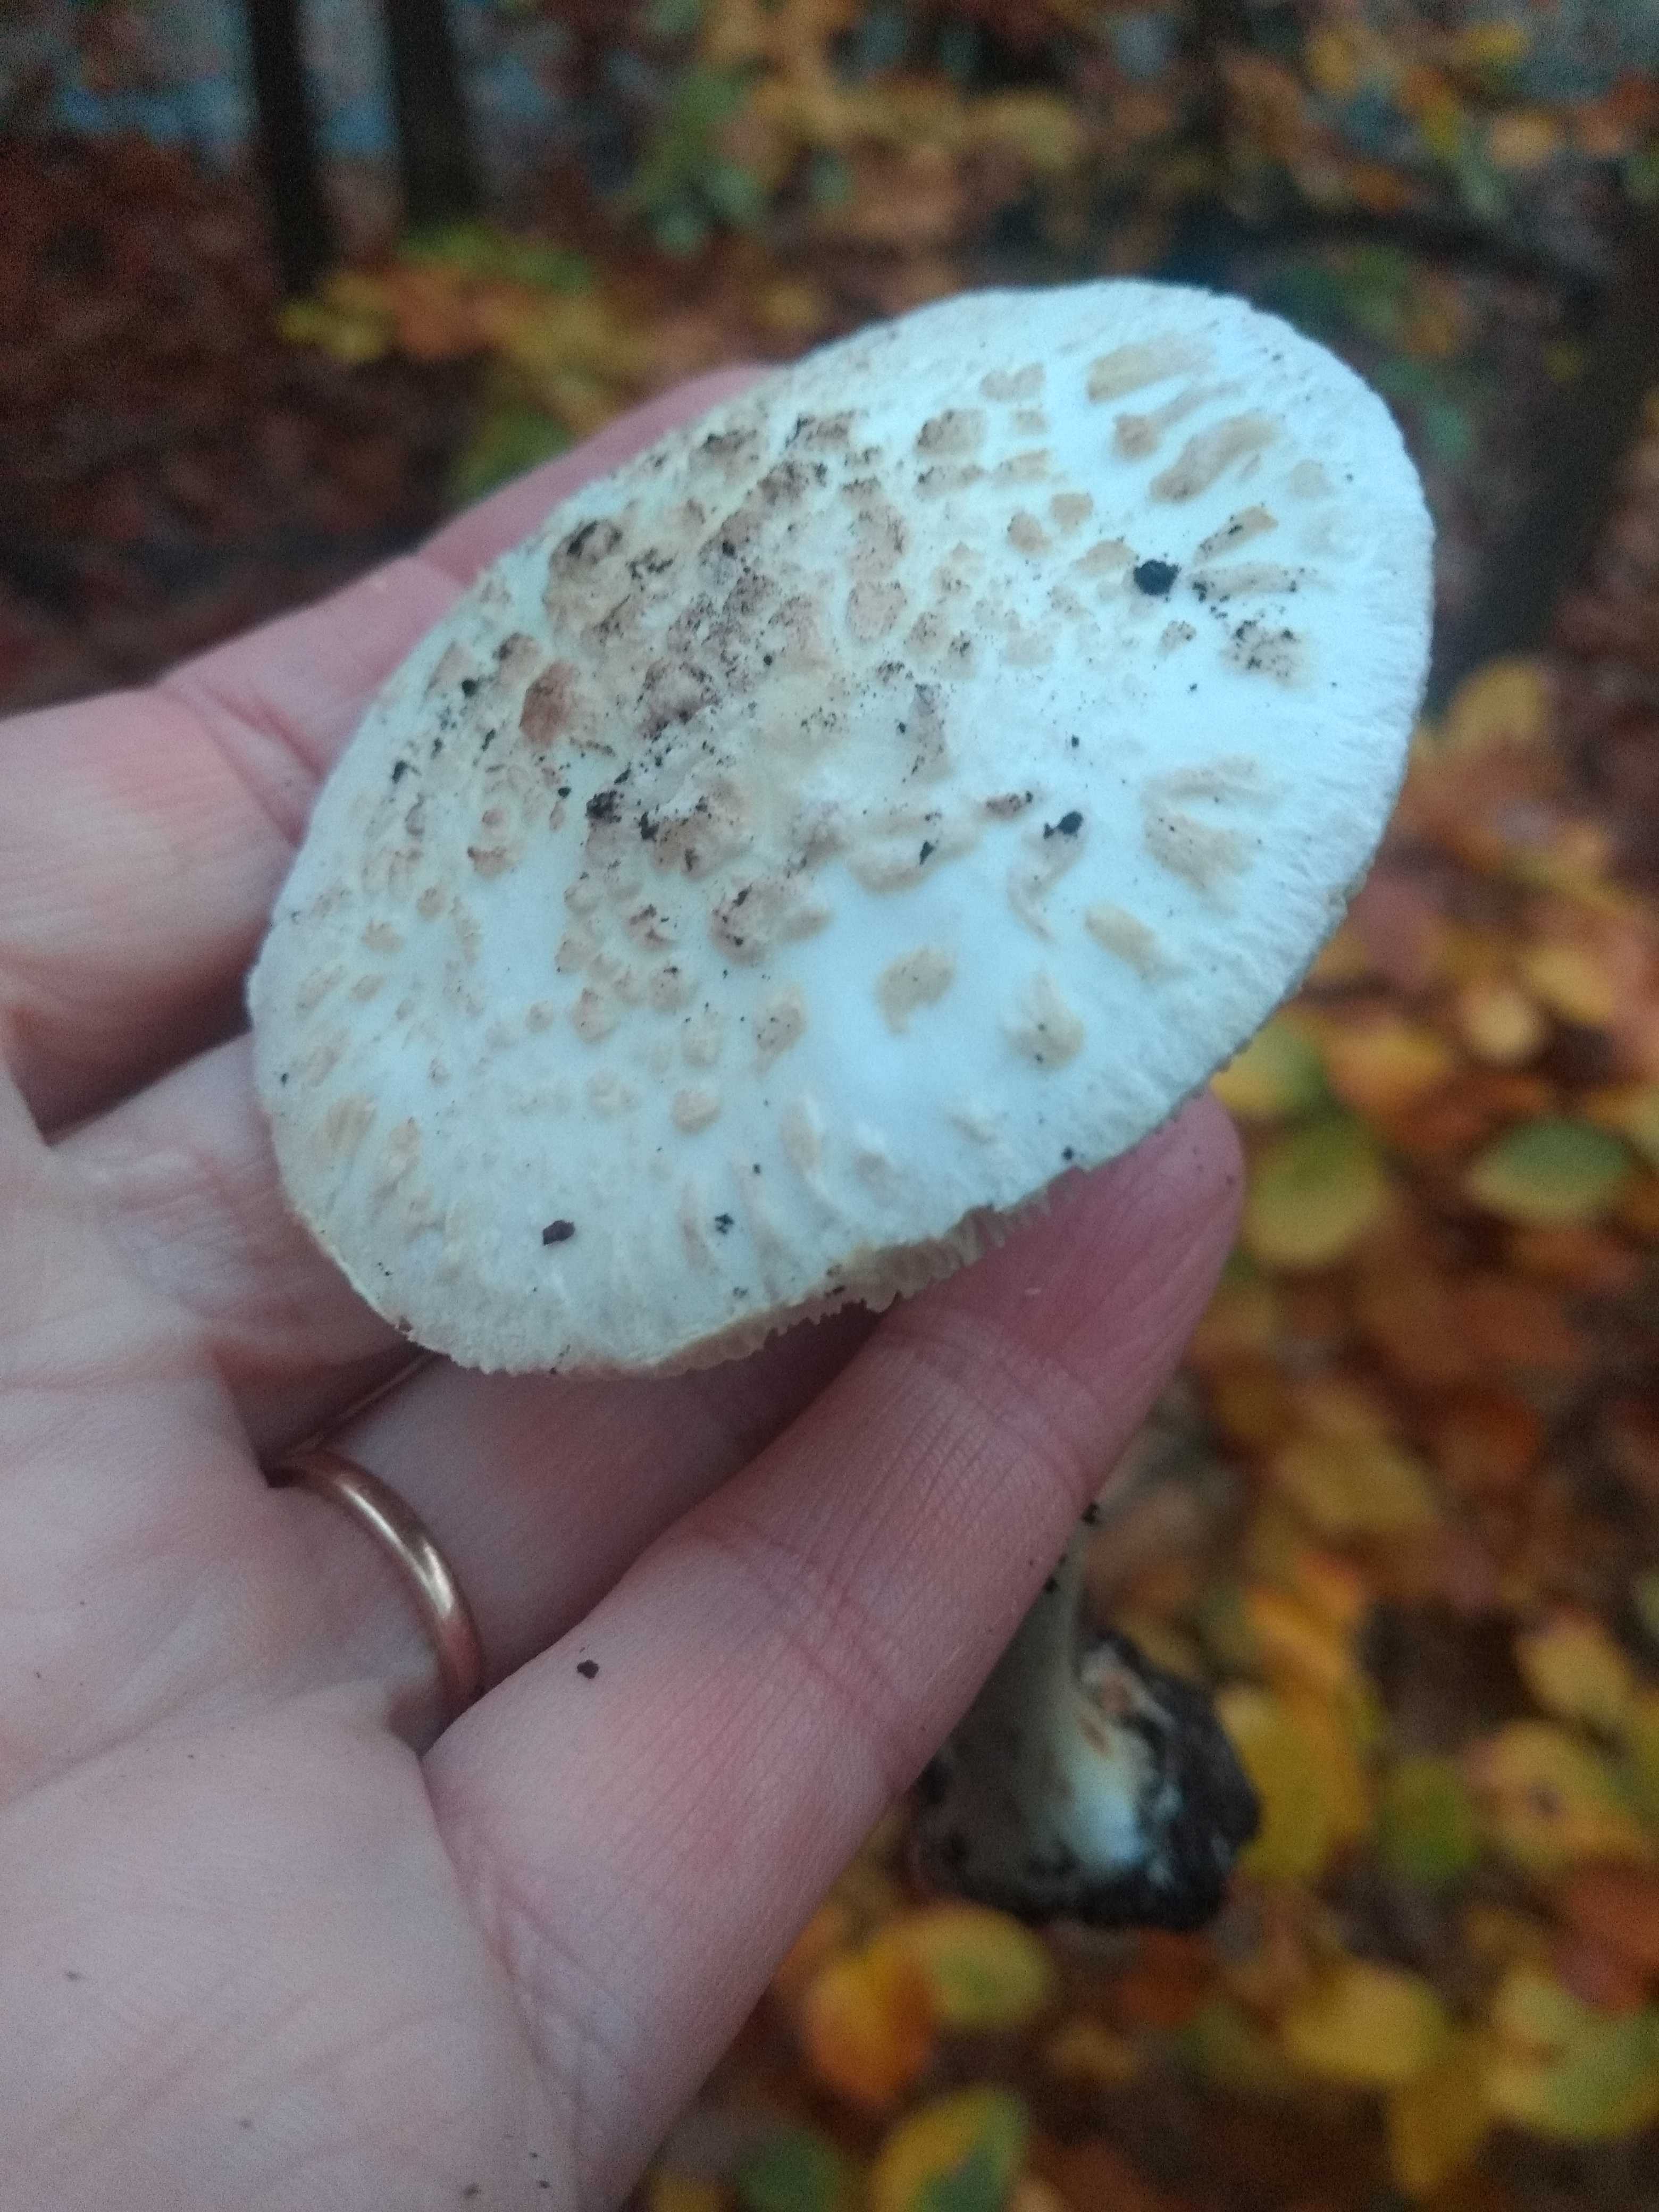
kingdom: Fungi
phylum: Basidiomycota
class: Agaricomycetes
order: Agaricales
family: Amanitaceae
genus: Amanita
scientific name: Amanita citrina
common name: kugleknoldet fluesvamp
